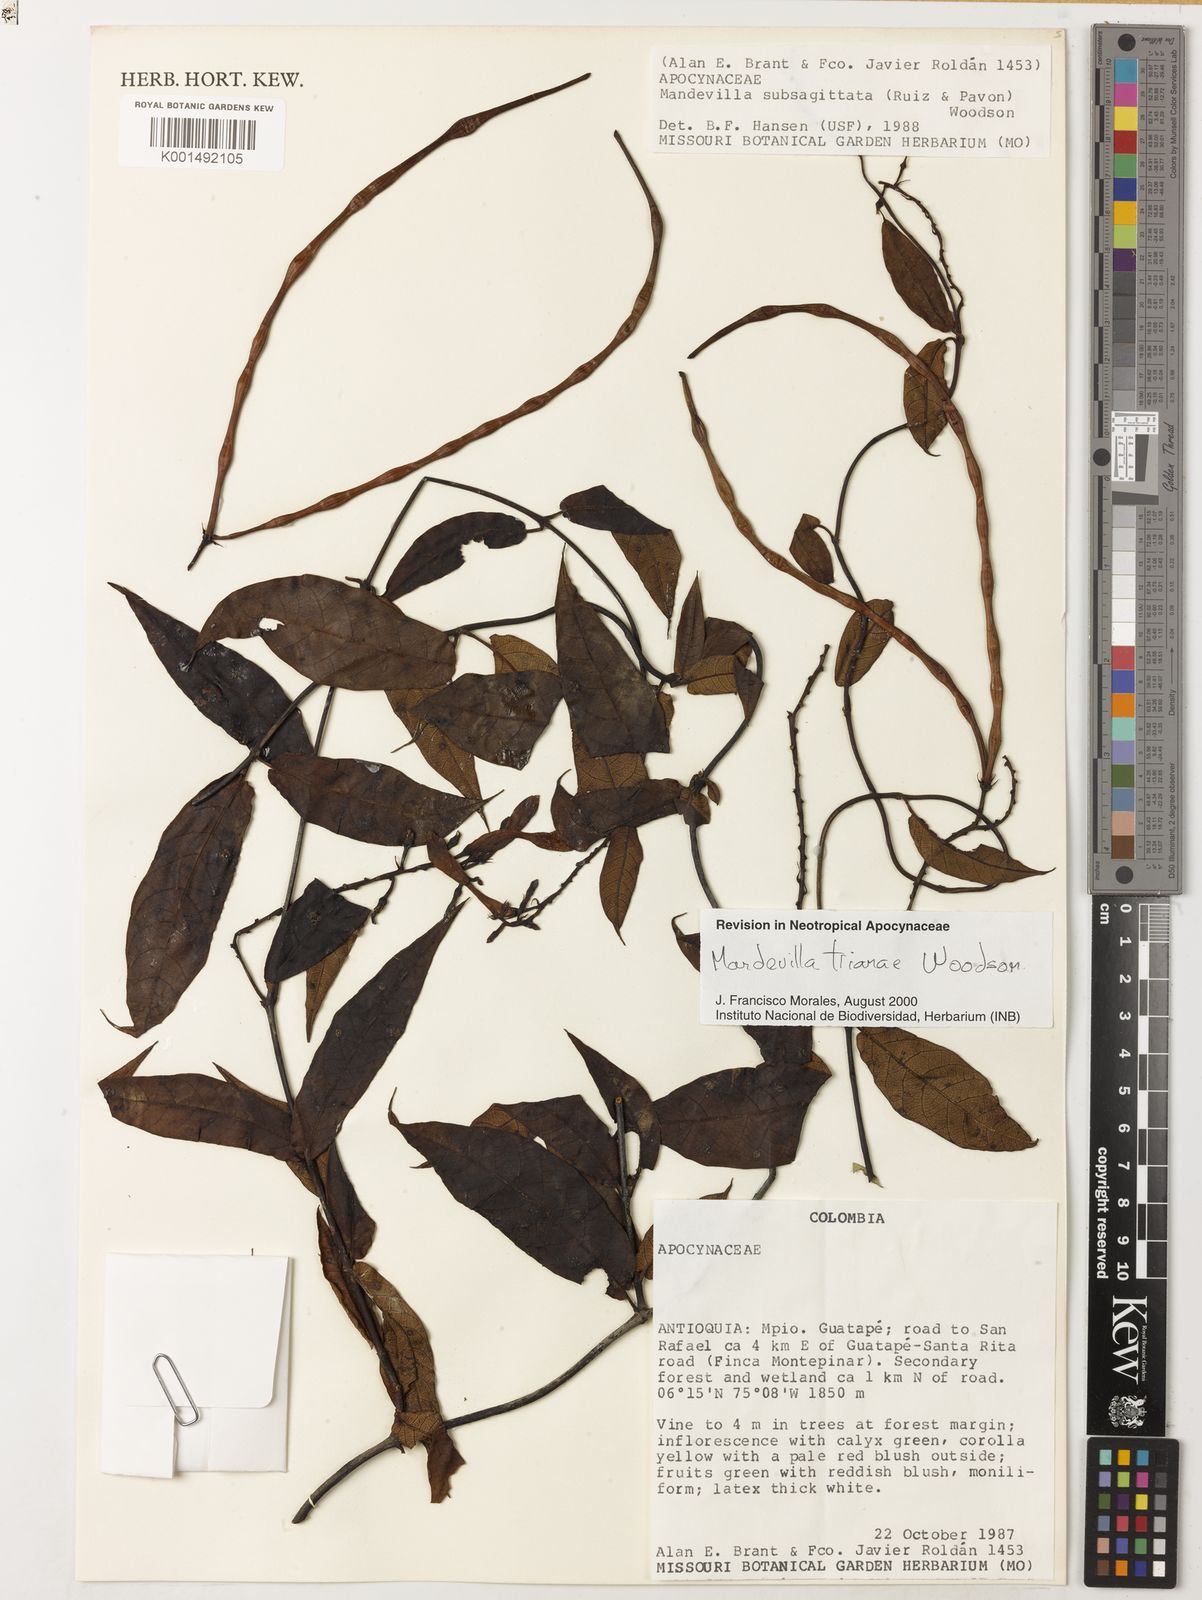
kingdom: Plantae
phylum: Tracheophyta
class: Magnoliopsida
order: Gentianales
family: Apocynaceae
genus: Mandevilla
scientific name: Mandevilla trianae
